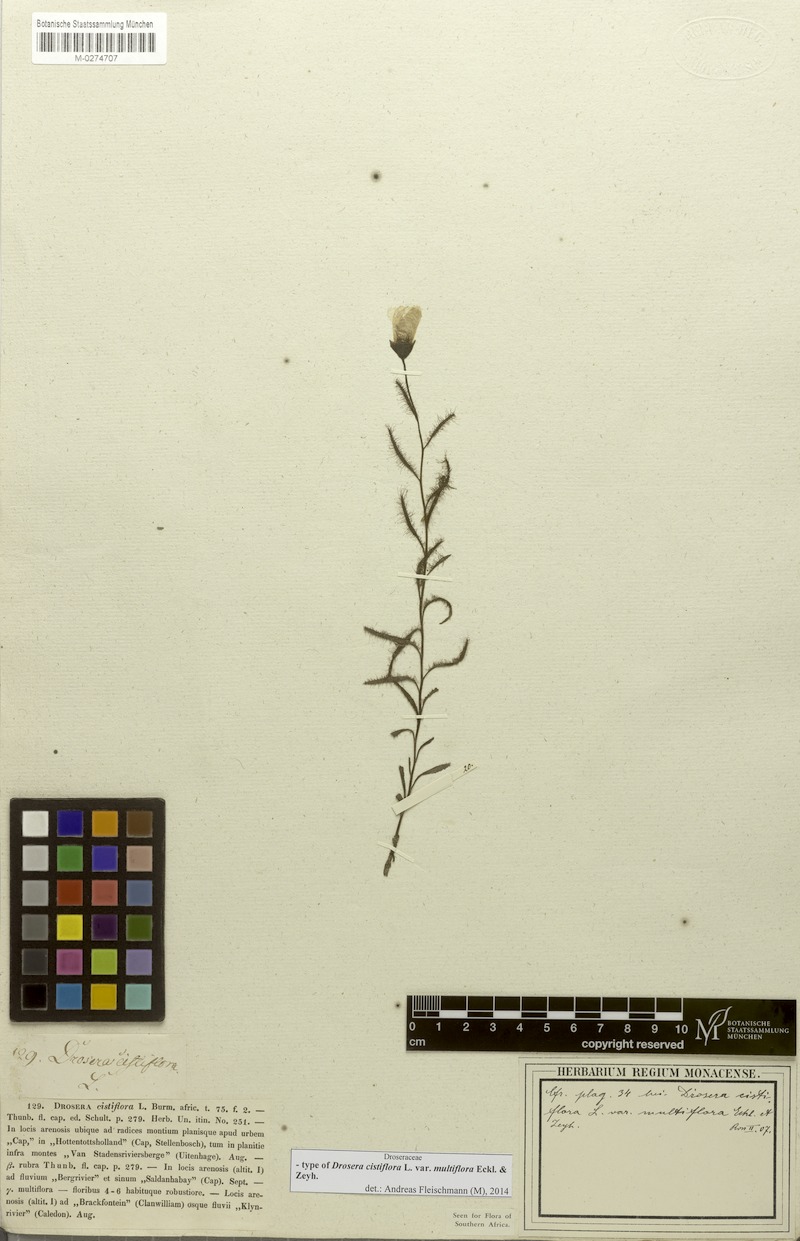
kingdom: Plantae
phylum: Tracheophyta
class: Magnoliopsida
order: Caryophyllales
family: Droseraceae
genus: Drosera
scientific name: Drosera cistiflora
